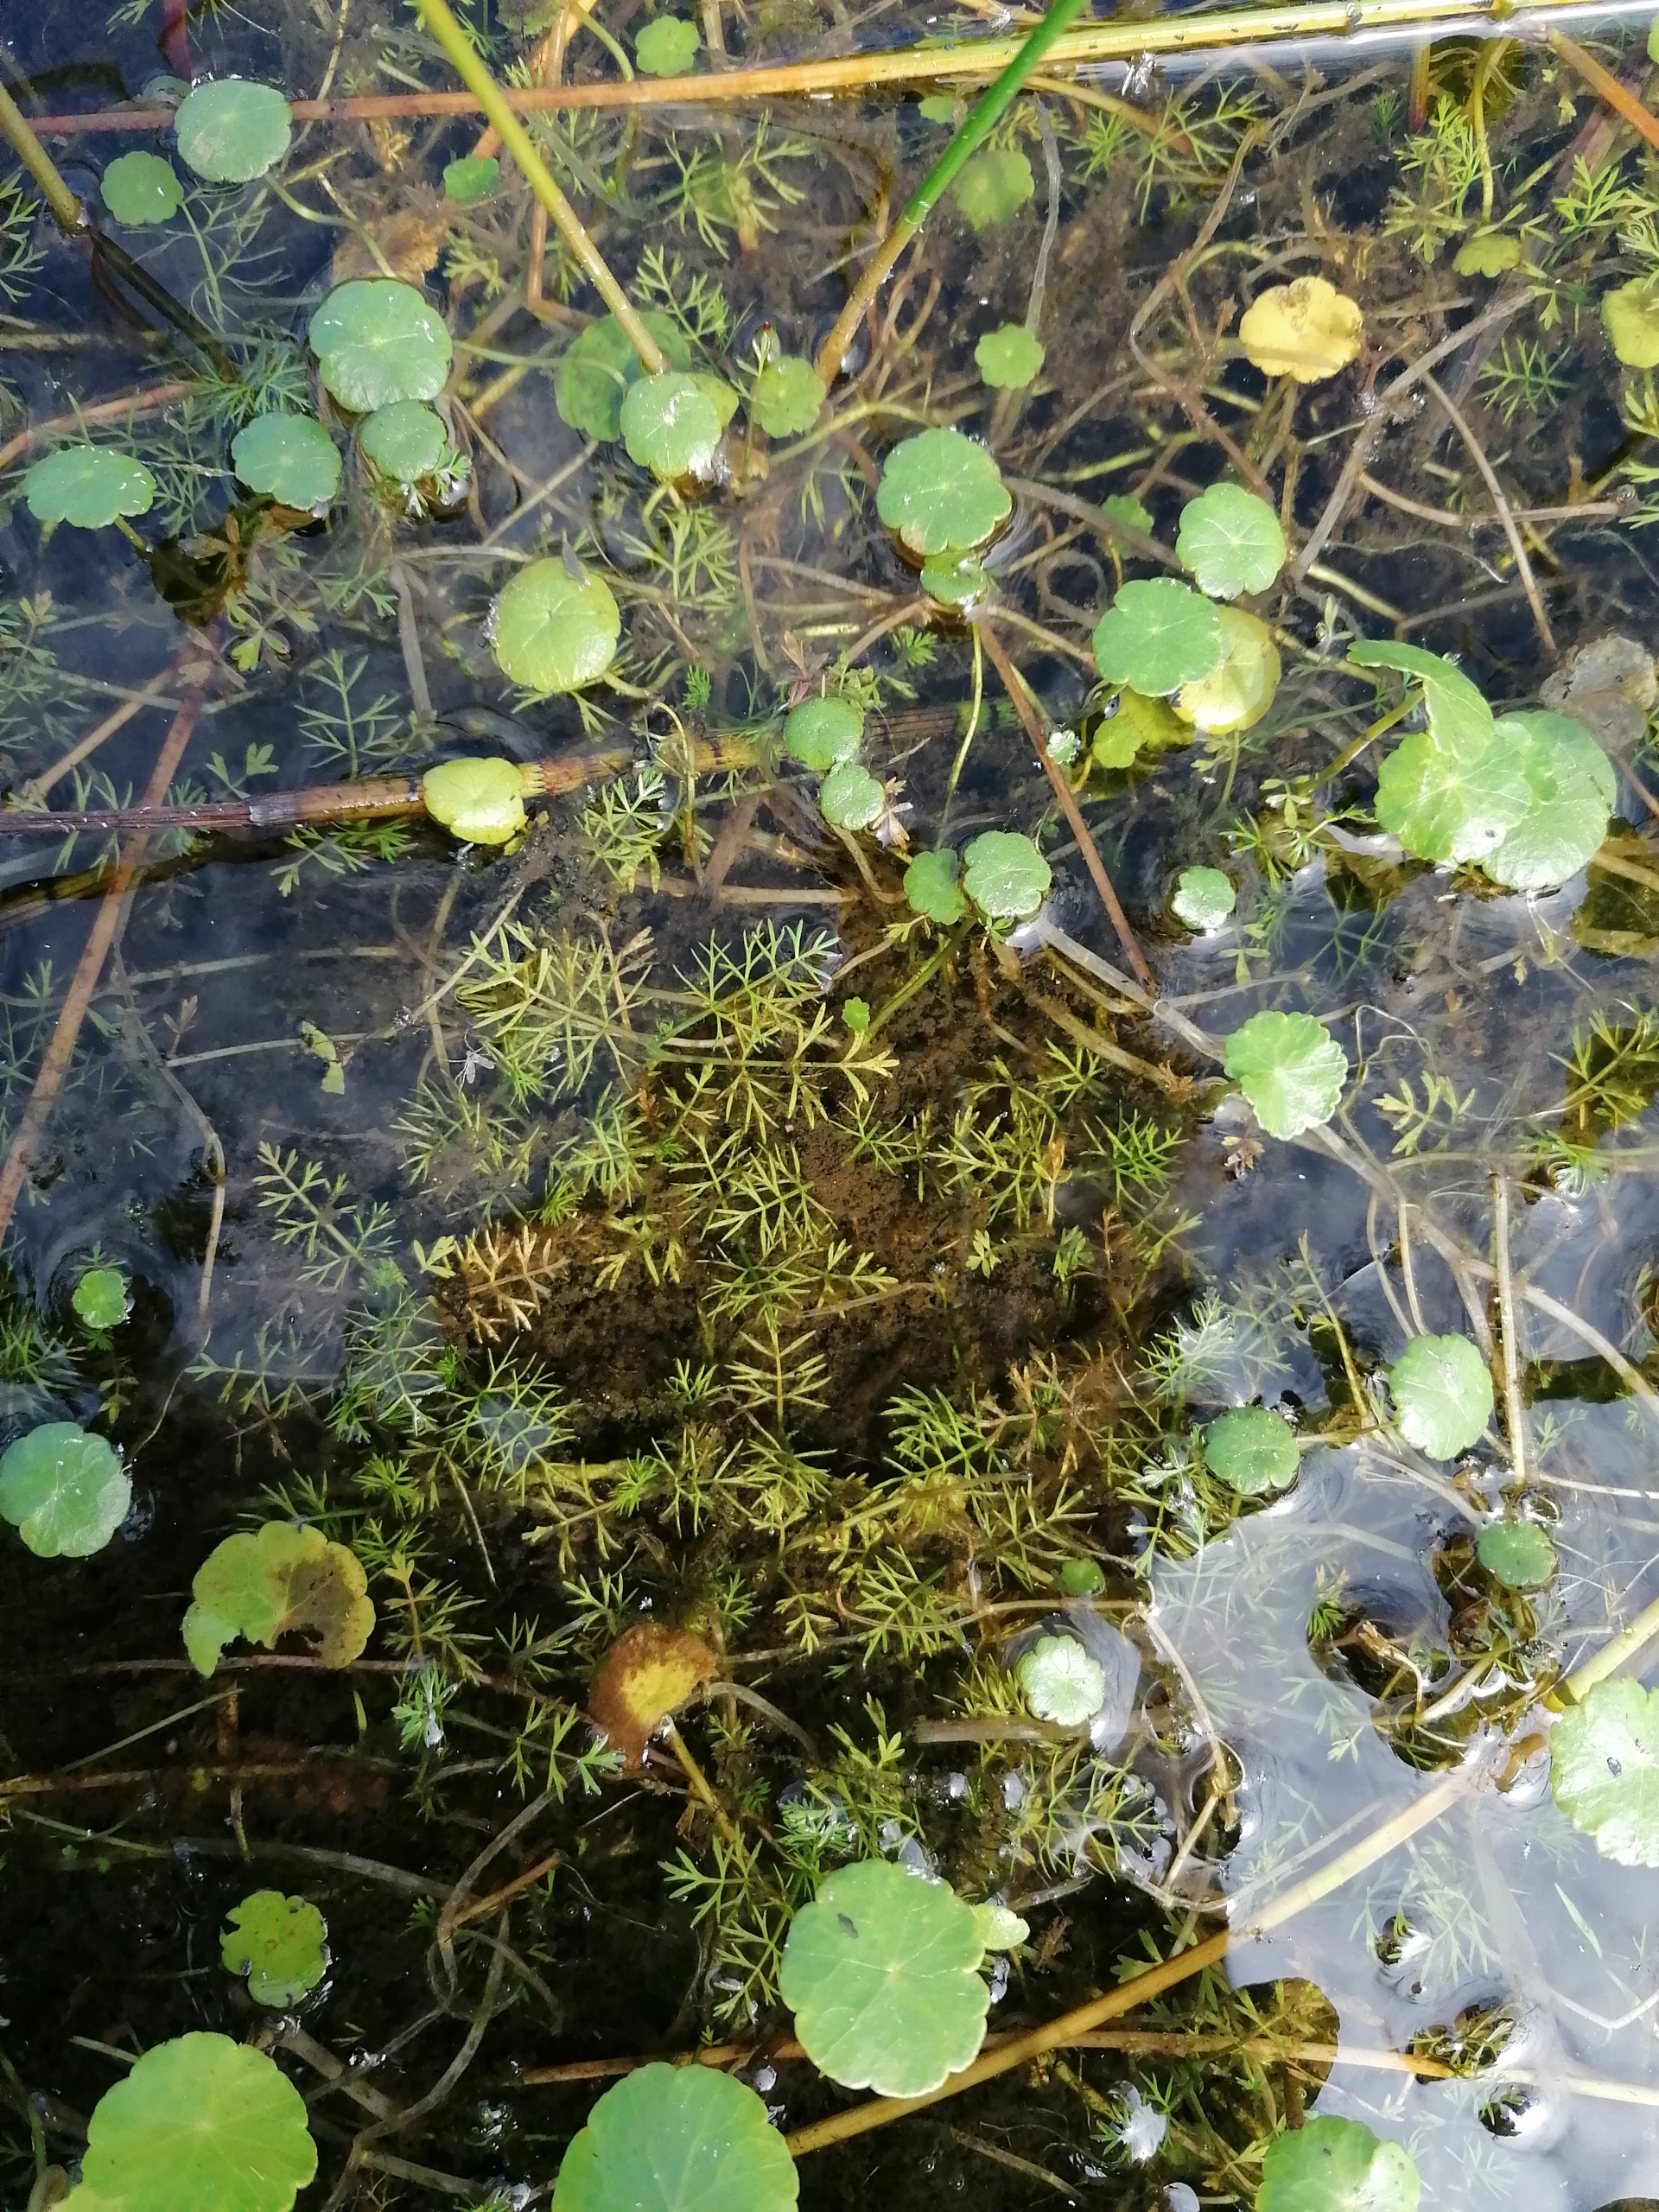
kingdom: Plantae
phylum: Tracheophyta
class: Magnoliopsida
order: Apiales
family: Apiaceae
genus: Helosciadium
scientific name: Helosciadium inundatum
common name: Svømmende sumpskærm
